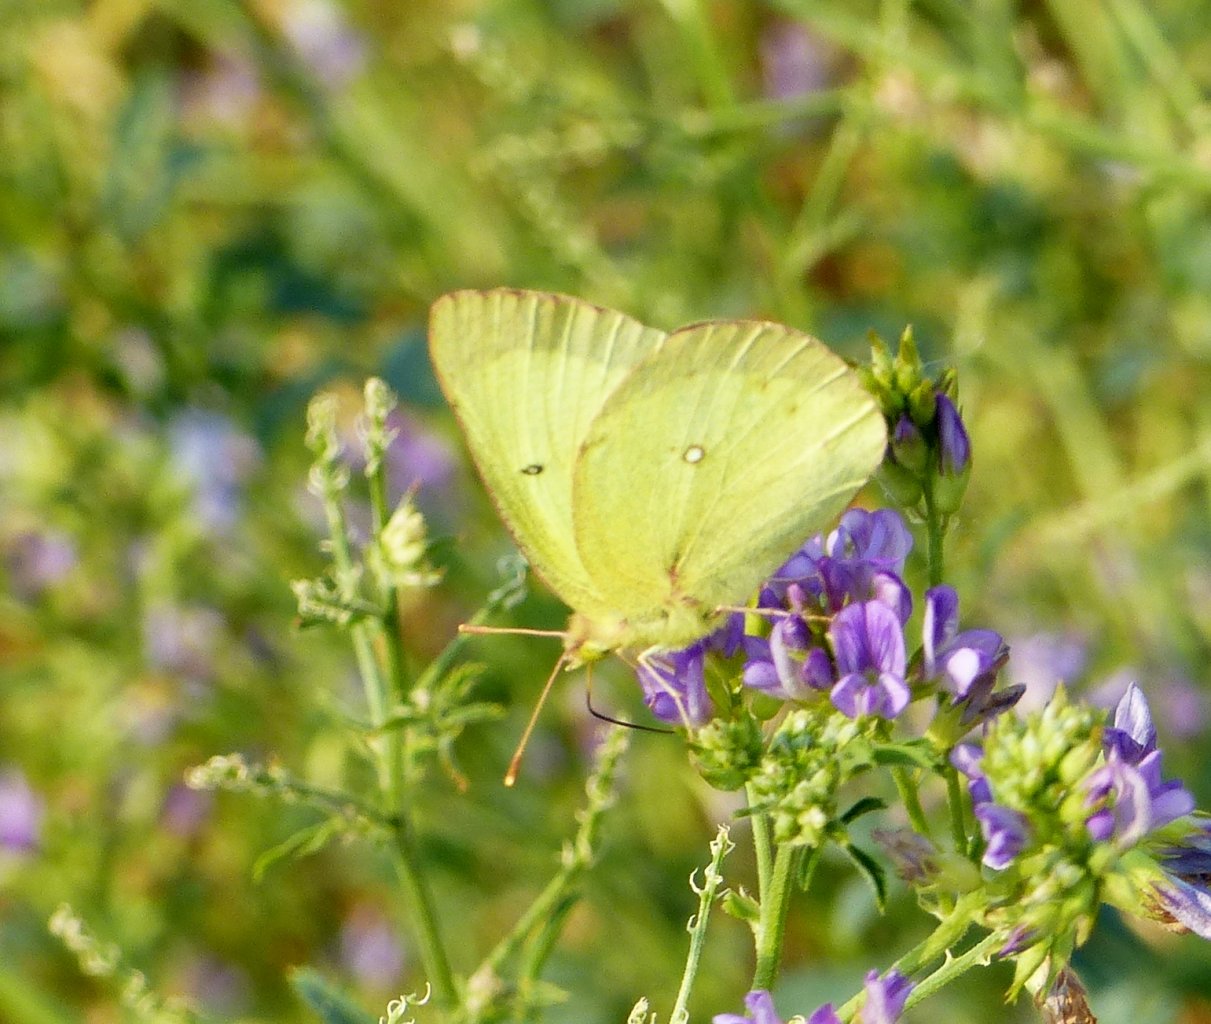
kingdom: Animalia
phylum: Arthropoda
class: Insecta
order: Lepidoptera
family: Pieridae
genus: Colias
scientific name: Colias philodice
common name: Clouded Sulphur
